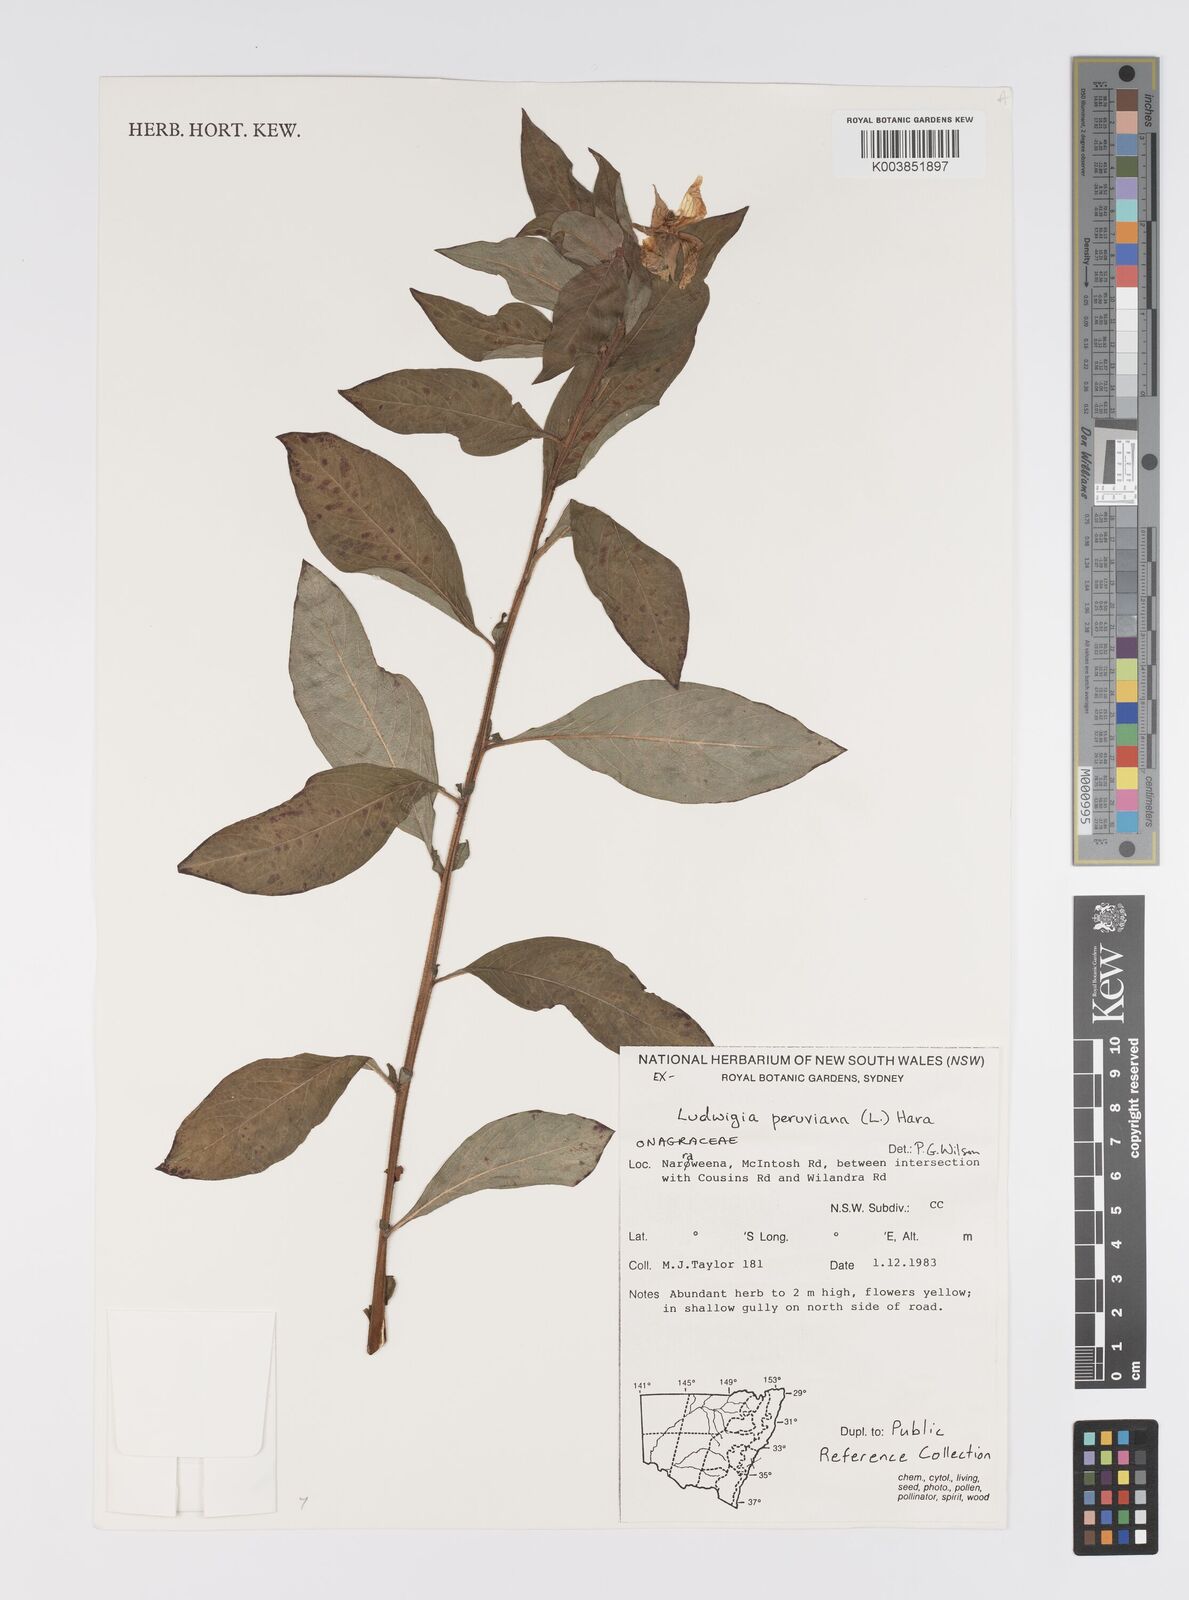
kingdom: Plantae
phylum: Tracheophyta
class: Magnoliopsida
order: Myrtales
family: Onagraceae
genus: Ludwigia
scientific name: Ludwigia peruviana
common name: Peruvian primrose-willow
